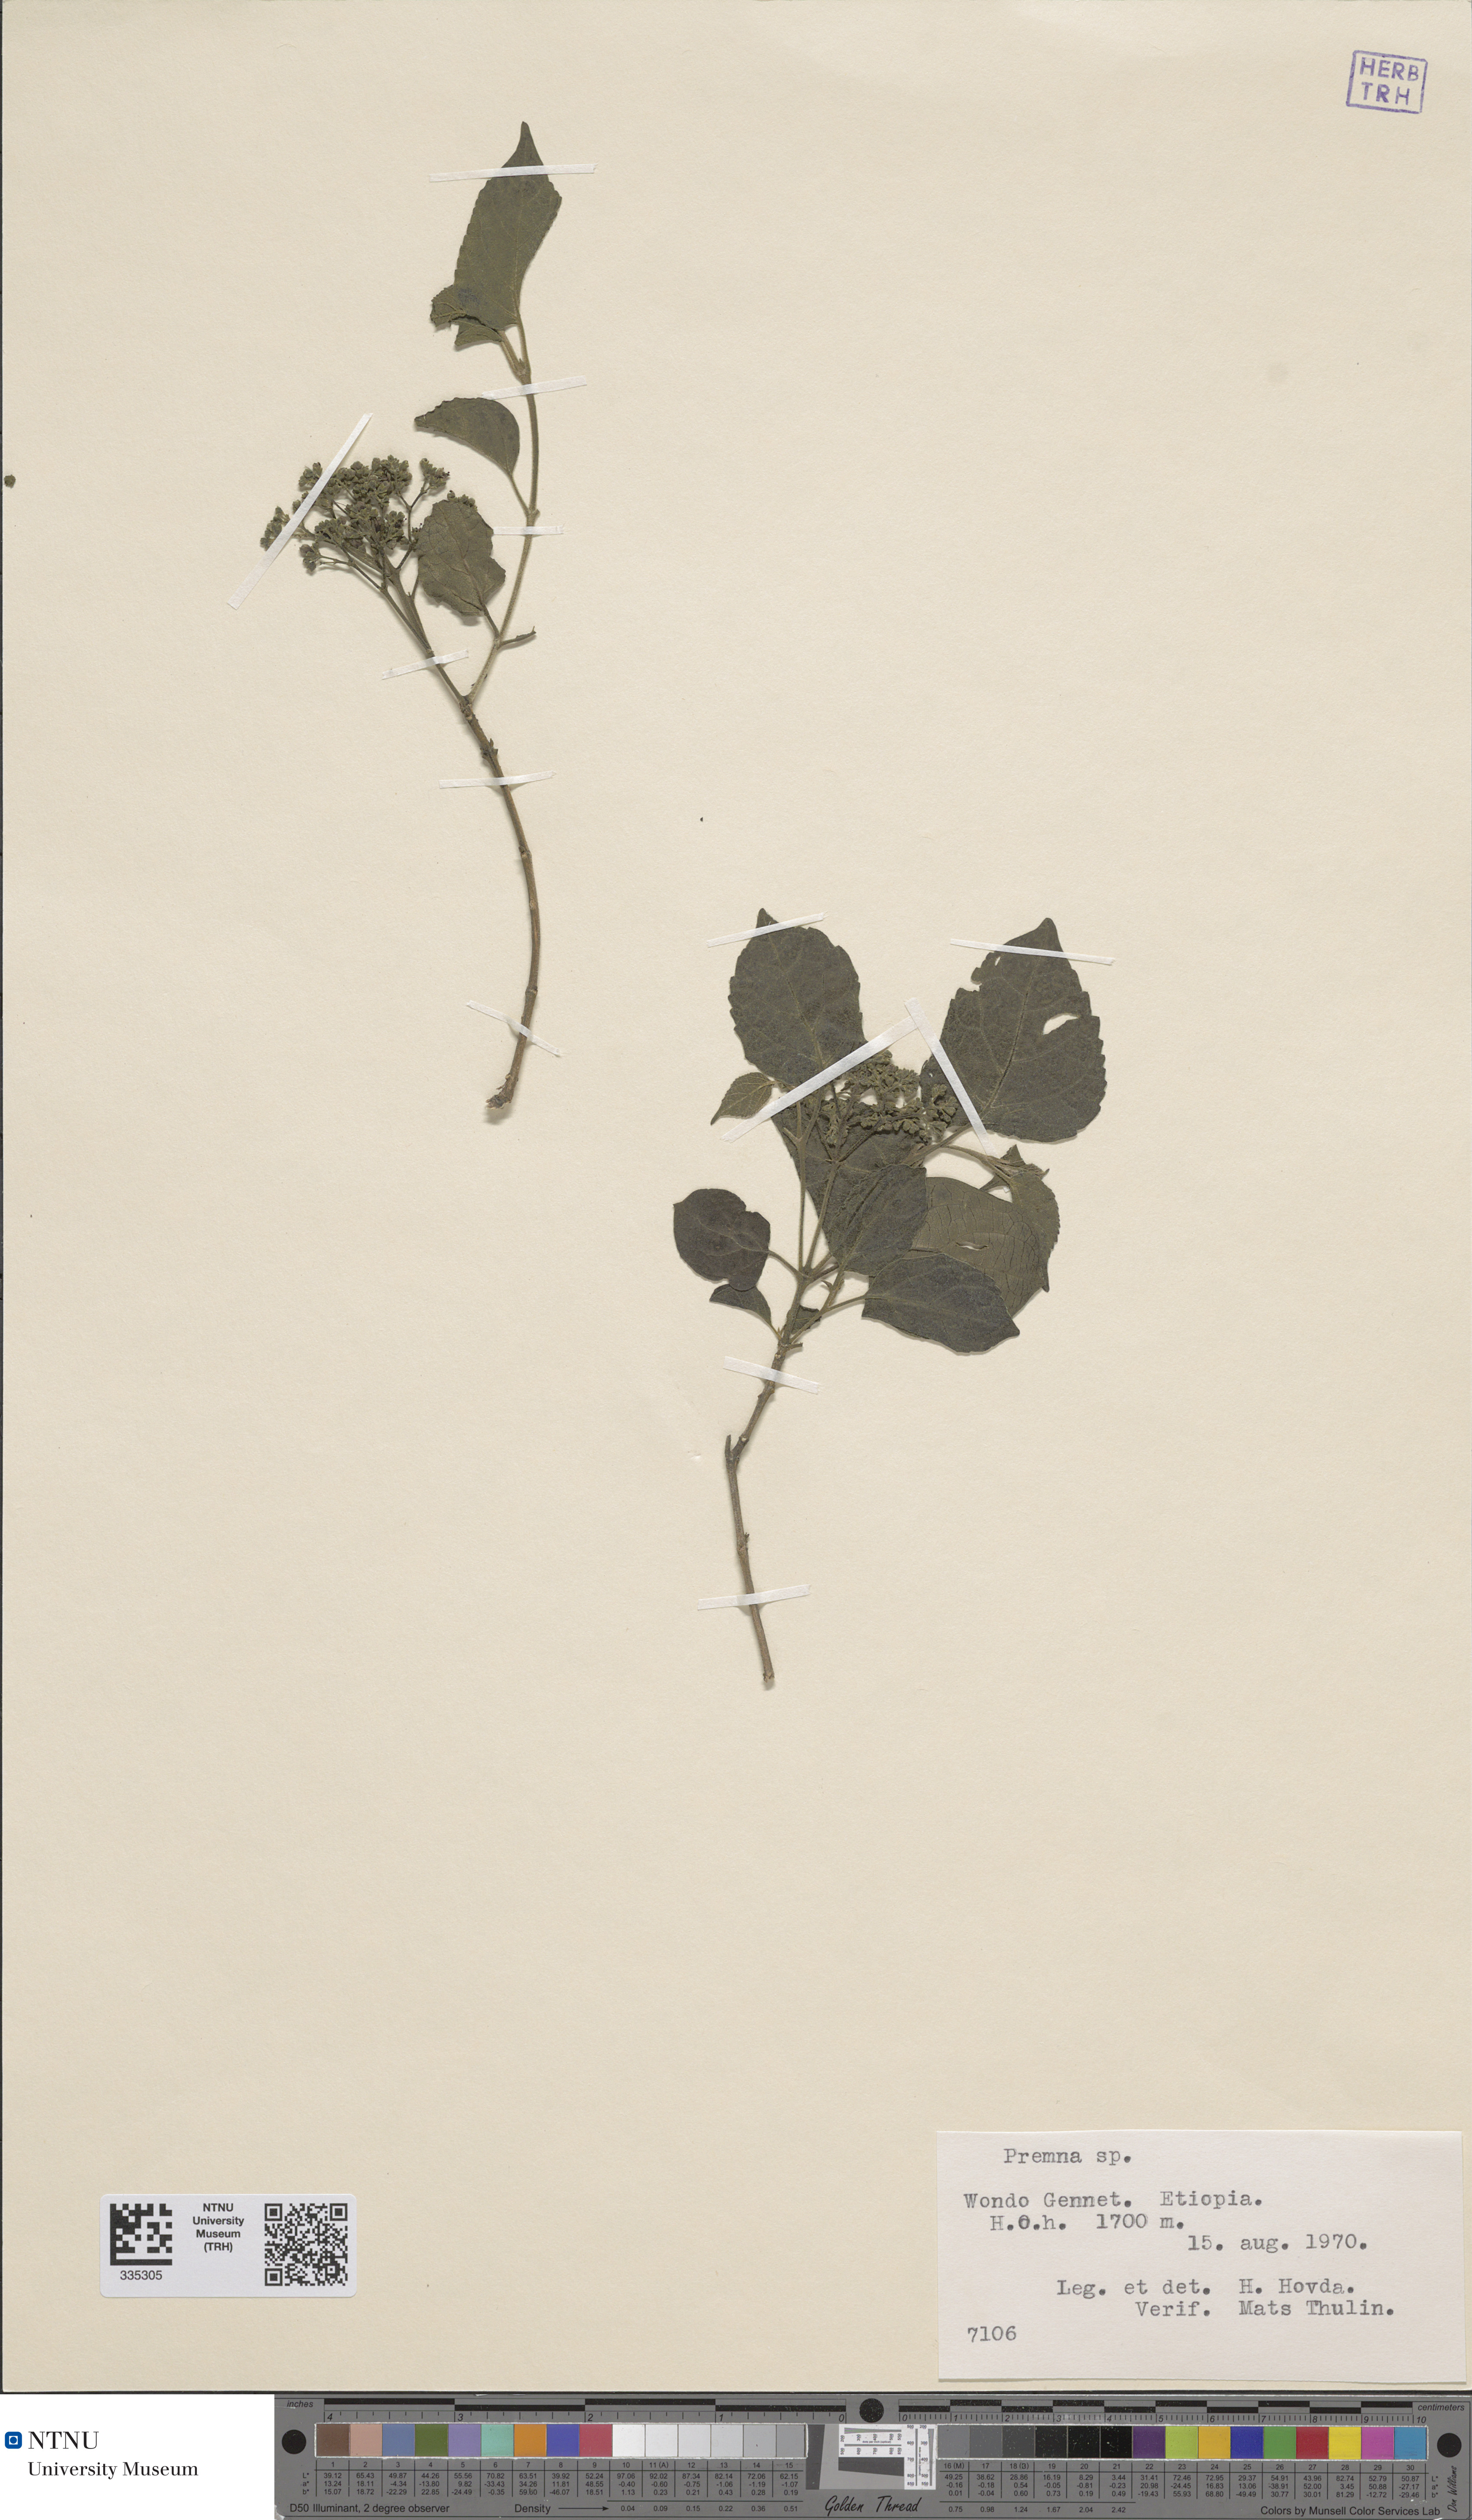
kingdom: Plantae
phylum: Tracheophyta
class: Magnoliopsida
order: Lamiales
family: Lamiaceae
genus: Premna
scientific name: Premna
